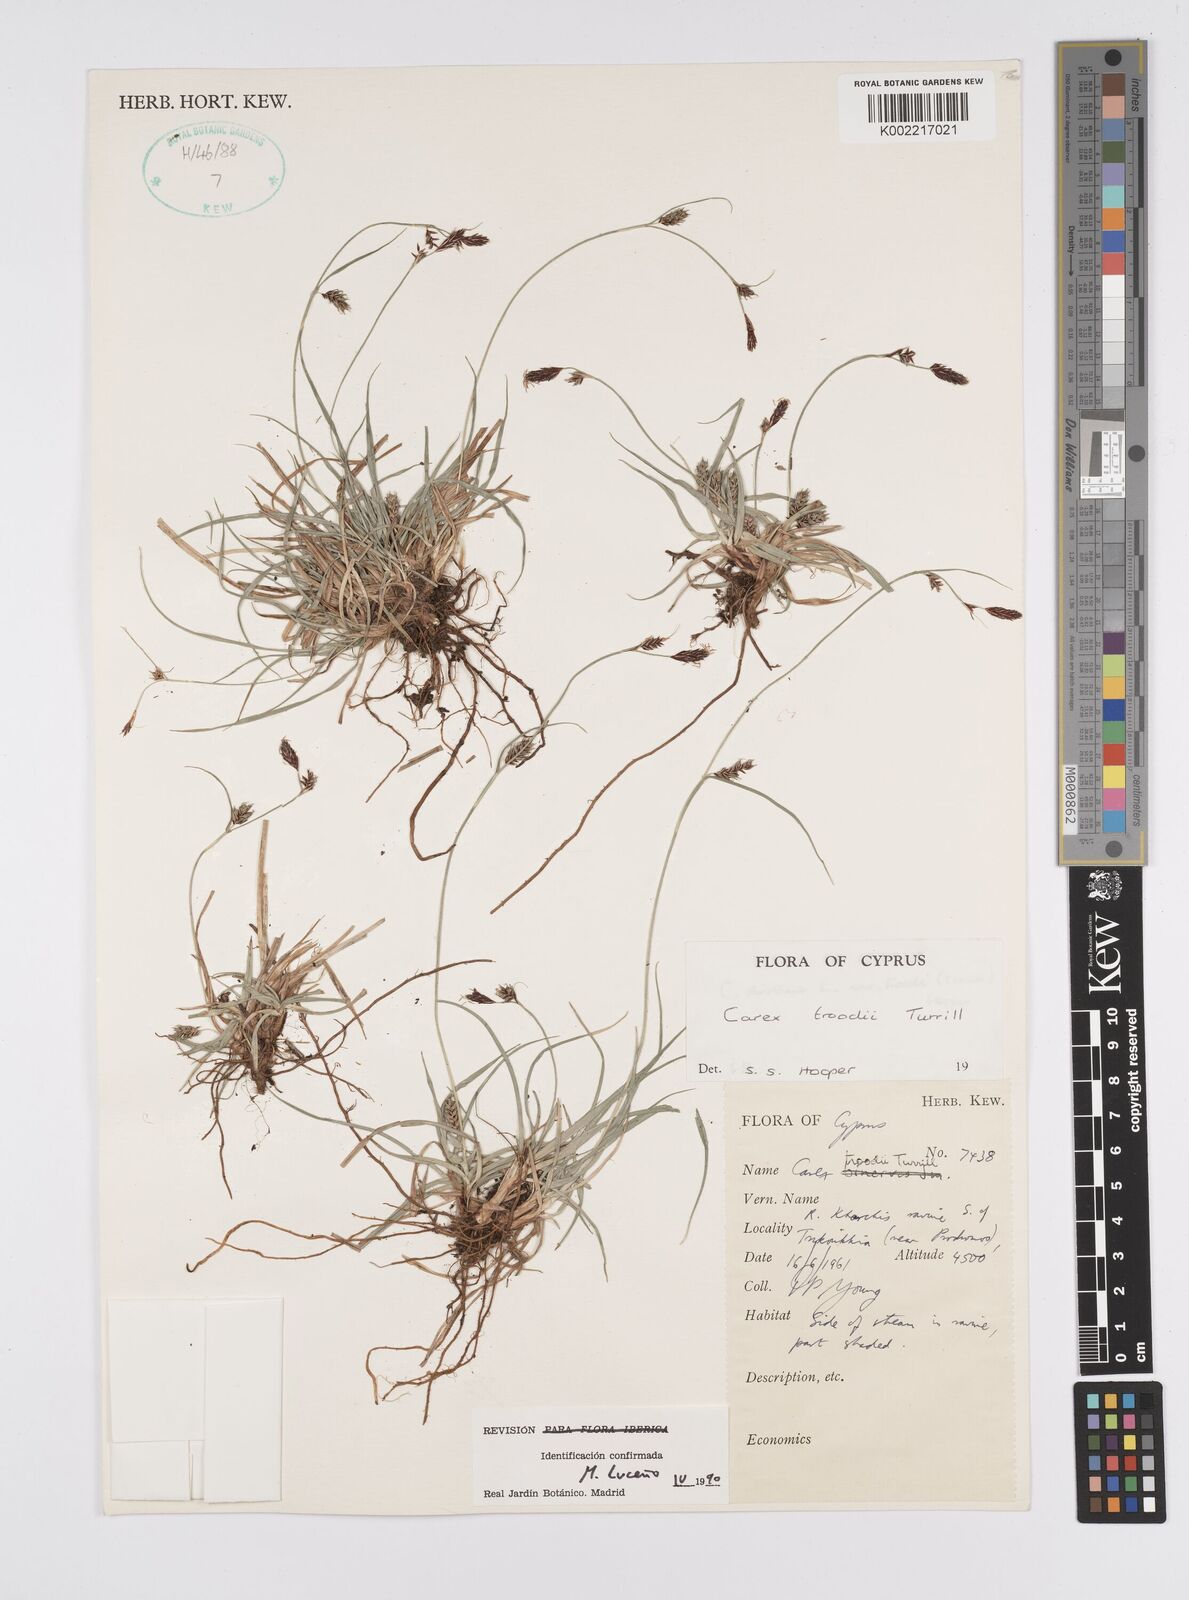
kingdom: Plantae
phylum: Tracheophyta
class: Liliopsida
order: Poales
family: Cyperaceae
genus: Carex
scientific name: Carex troodi
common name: Troodos mount sedge
